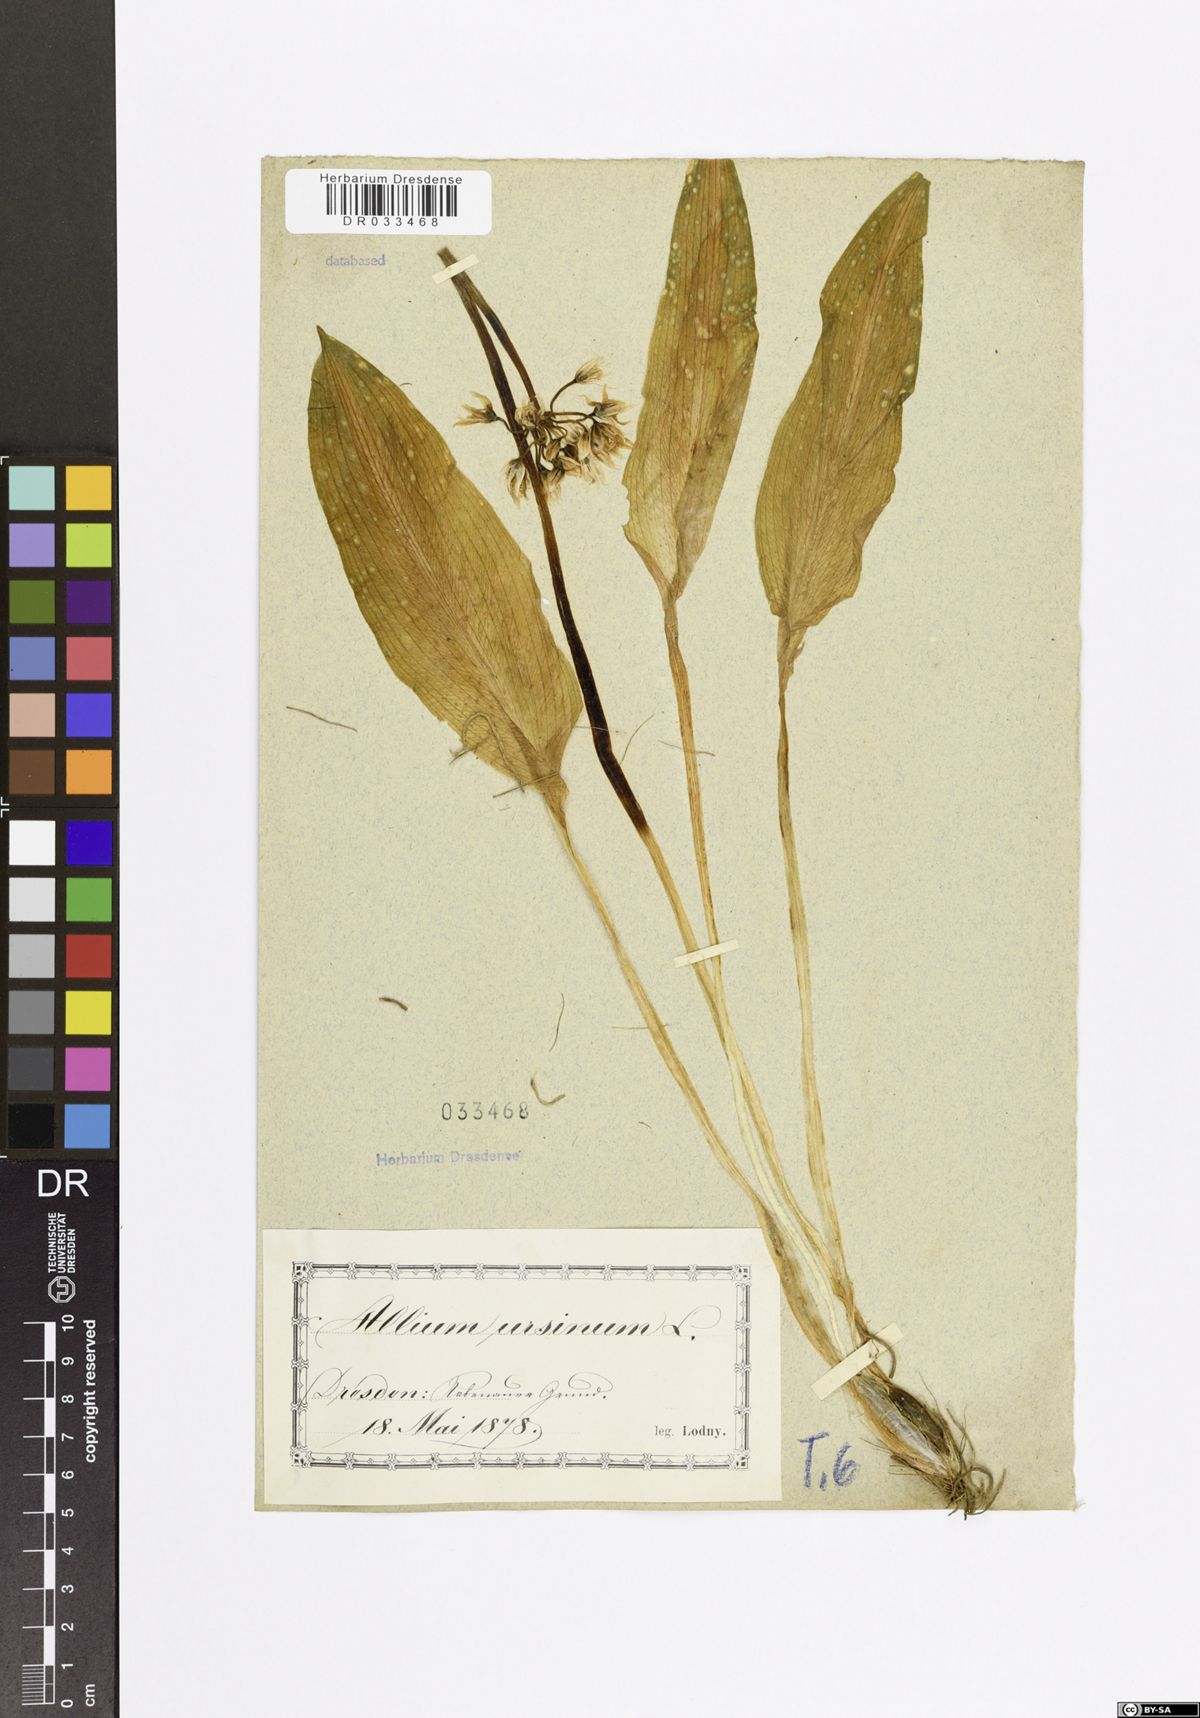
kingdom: Plantae
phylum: Tracheophyta
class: Liliopsida
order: Asparagales
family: Amaryllidaceae
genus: Allium
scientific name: Allium ursinum
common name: Ramsons
